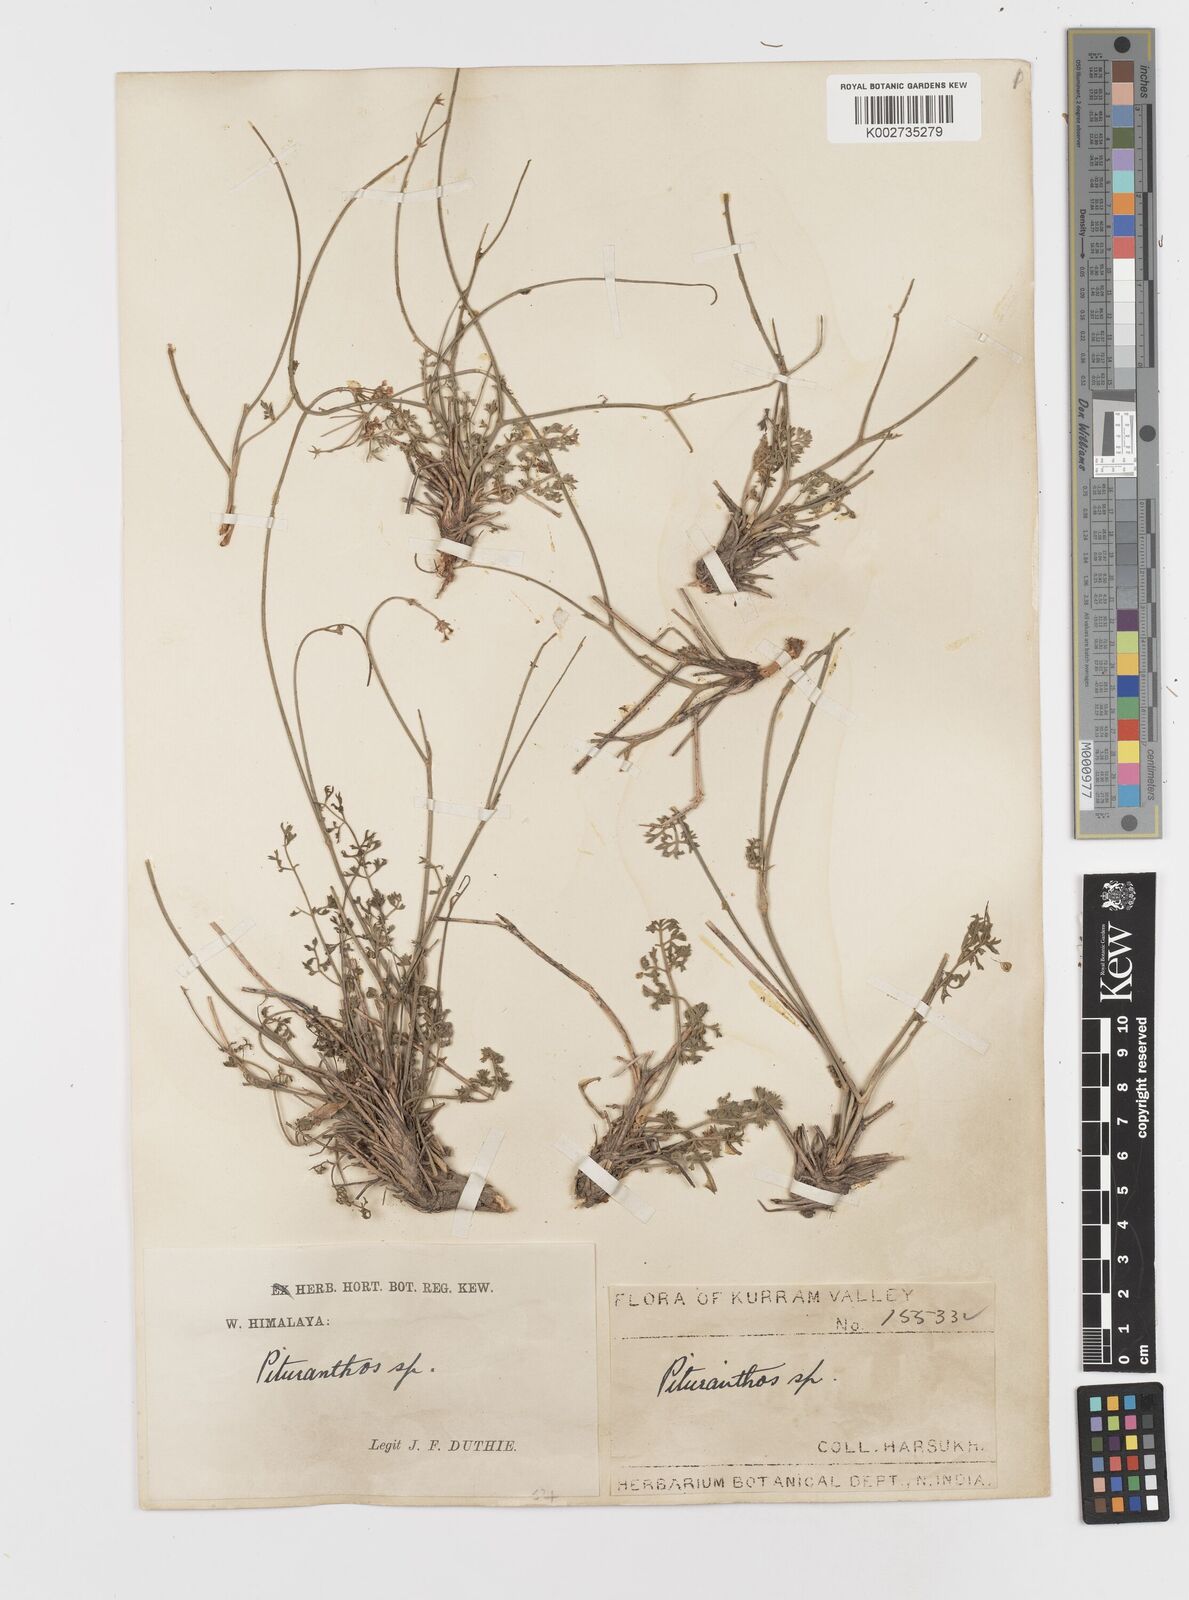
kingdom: Plantae
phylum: Tracheophyta
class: Magnoliopsida
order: Apiales
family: Apiaceae
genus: Psammogeton
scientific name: Psammogeton papillare
